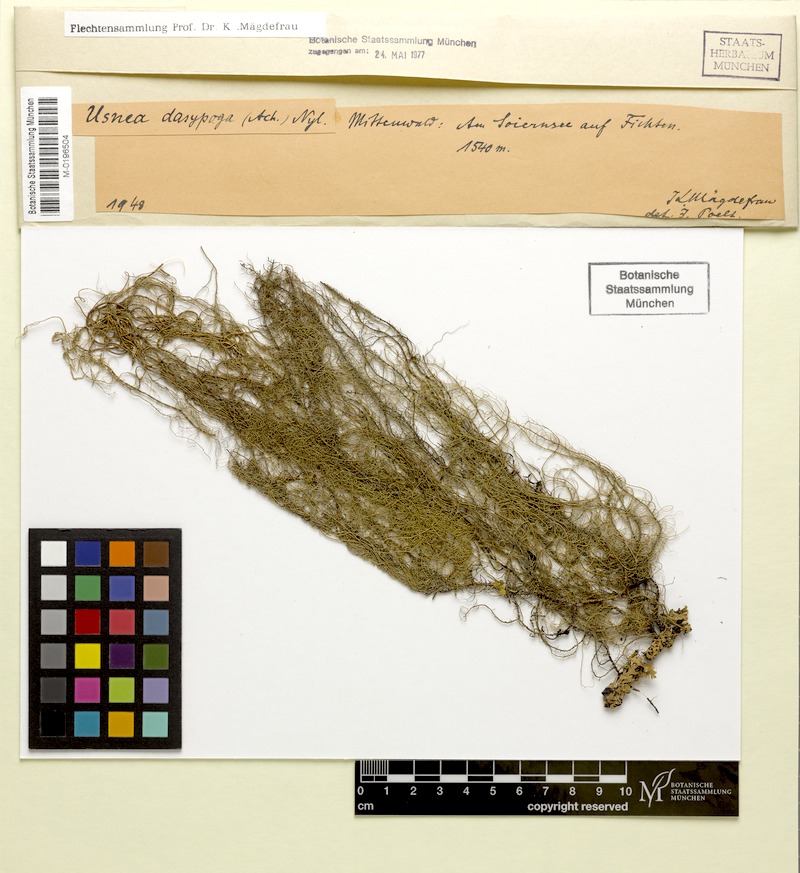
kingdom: Fungi
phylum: Ascomycota
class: Lecanoromycetes
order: Lecanorales
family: Parmeliaceae
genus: Usnea
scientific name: Usnea dasopoga
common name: Fishbone beard lichen
